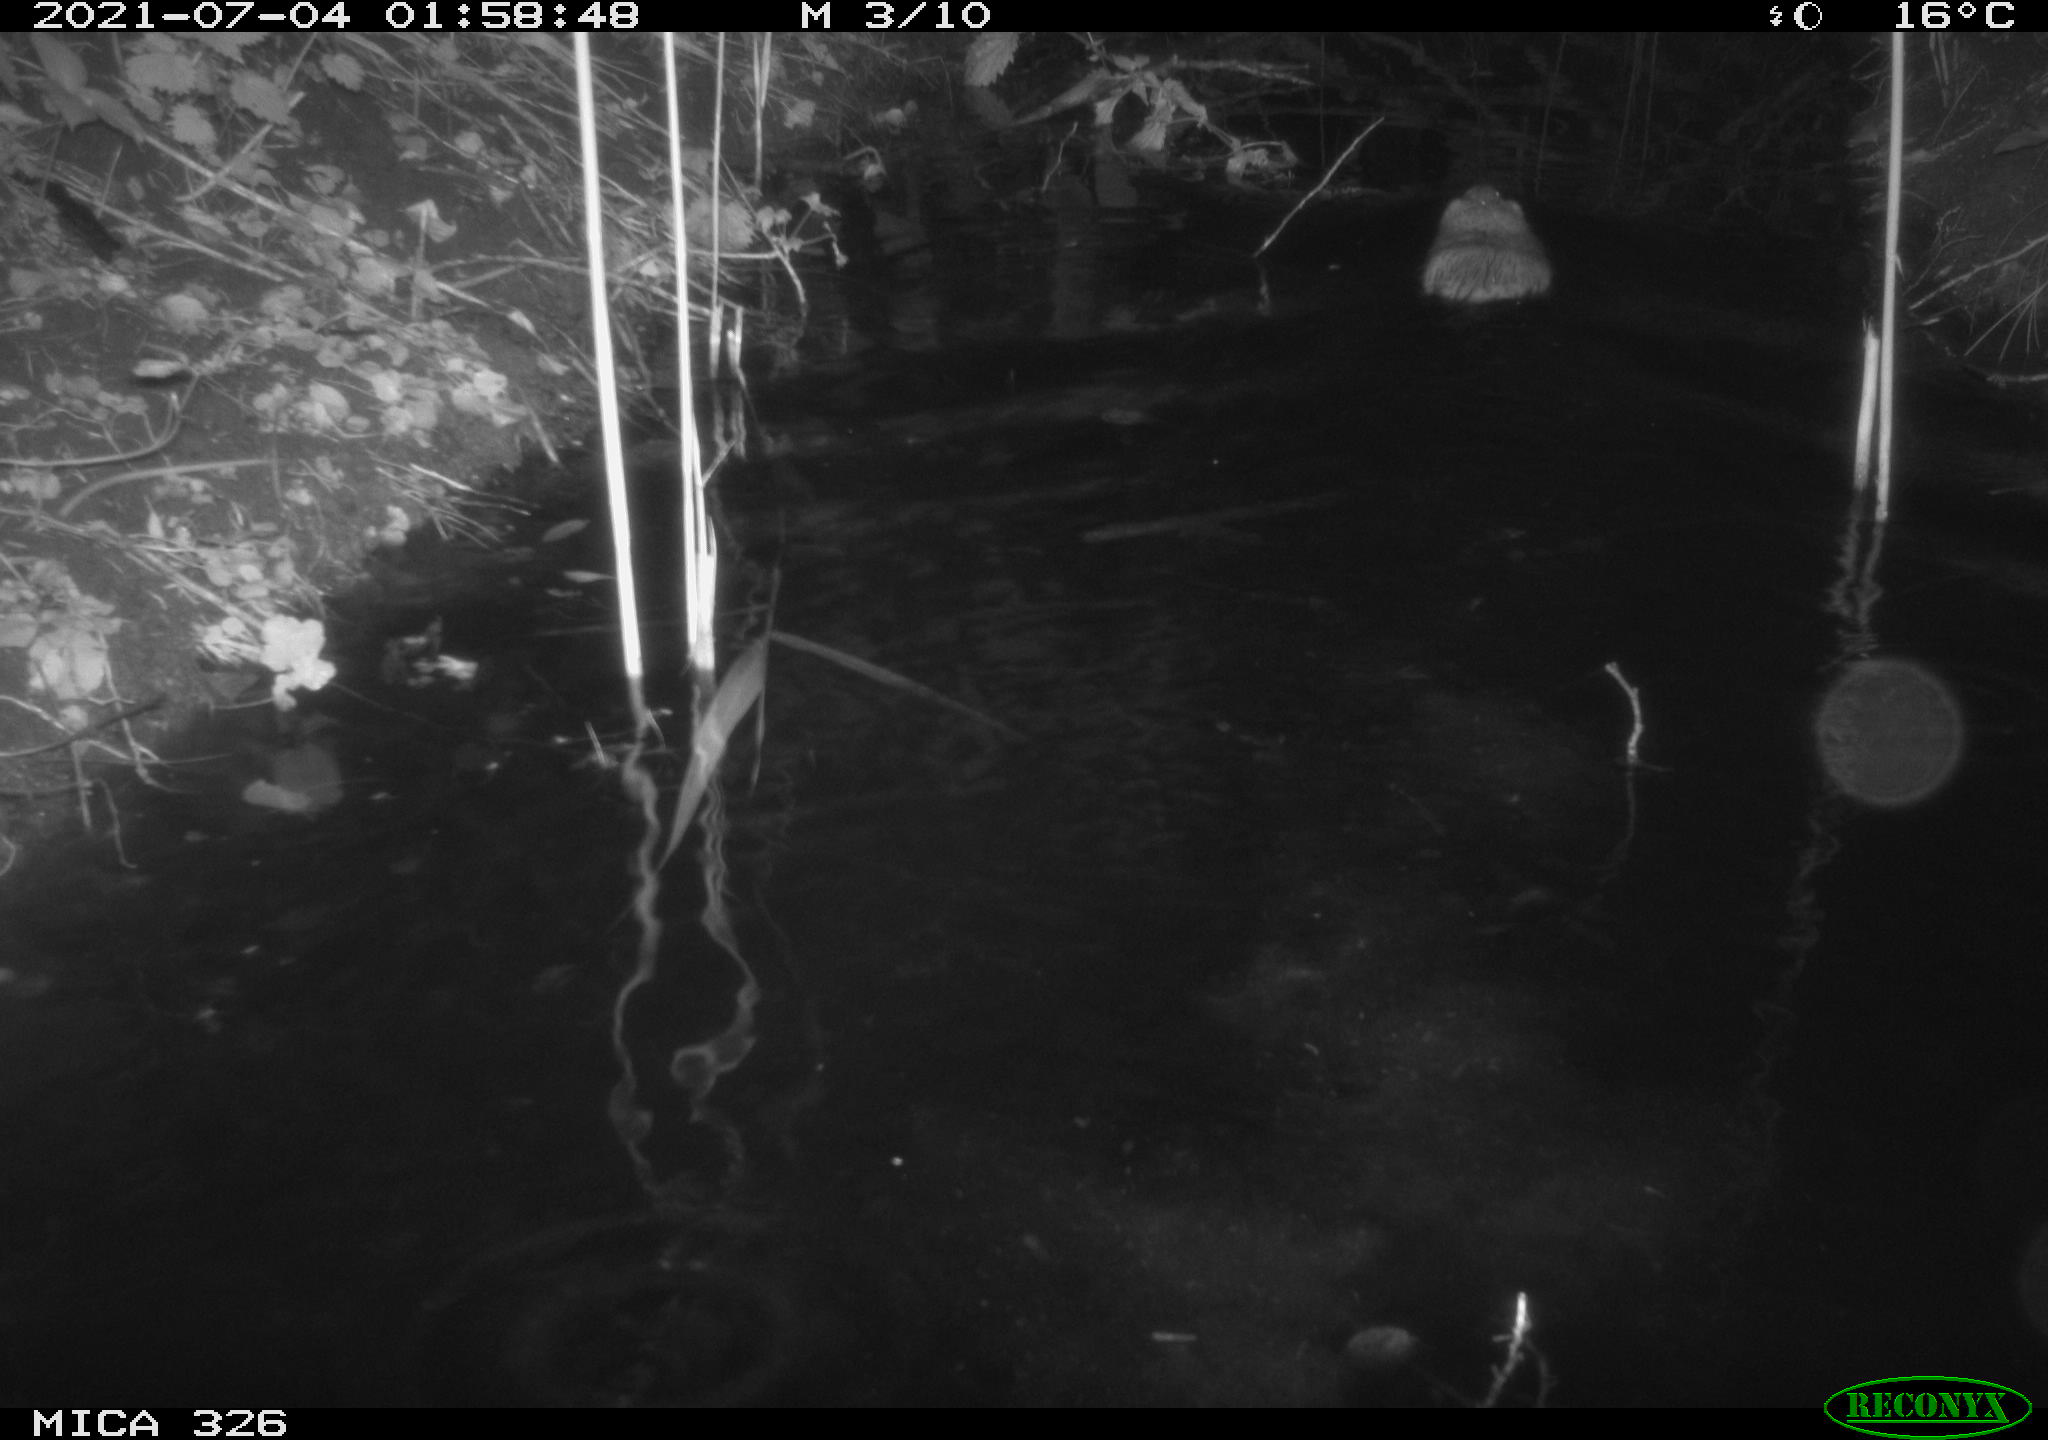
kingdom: Animalia
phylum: Chordata
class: Mammalia
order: Rodentia
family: Cricetidae
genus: Ondatra
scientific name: Ondatra zibethicus
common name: Muskrat
